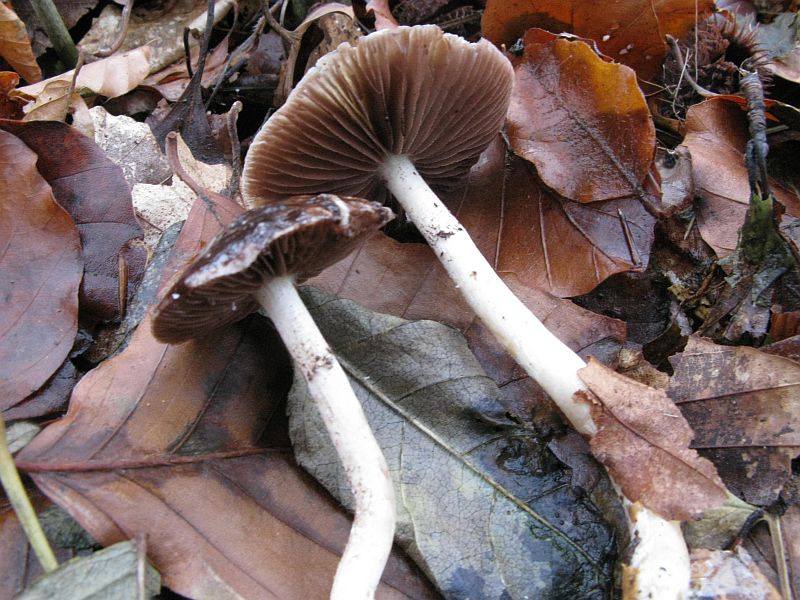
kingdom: Fungi
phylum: Basidiomycota
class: Agaricomycetes
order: Agaricales
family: Strophariaceae
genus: Stropharia
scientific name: Stropharia cyanea
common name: blågrøn bredblad
